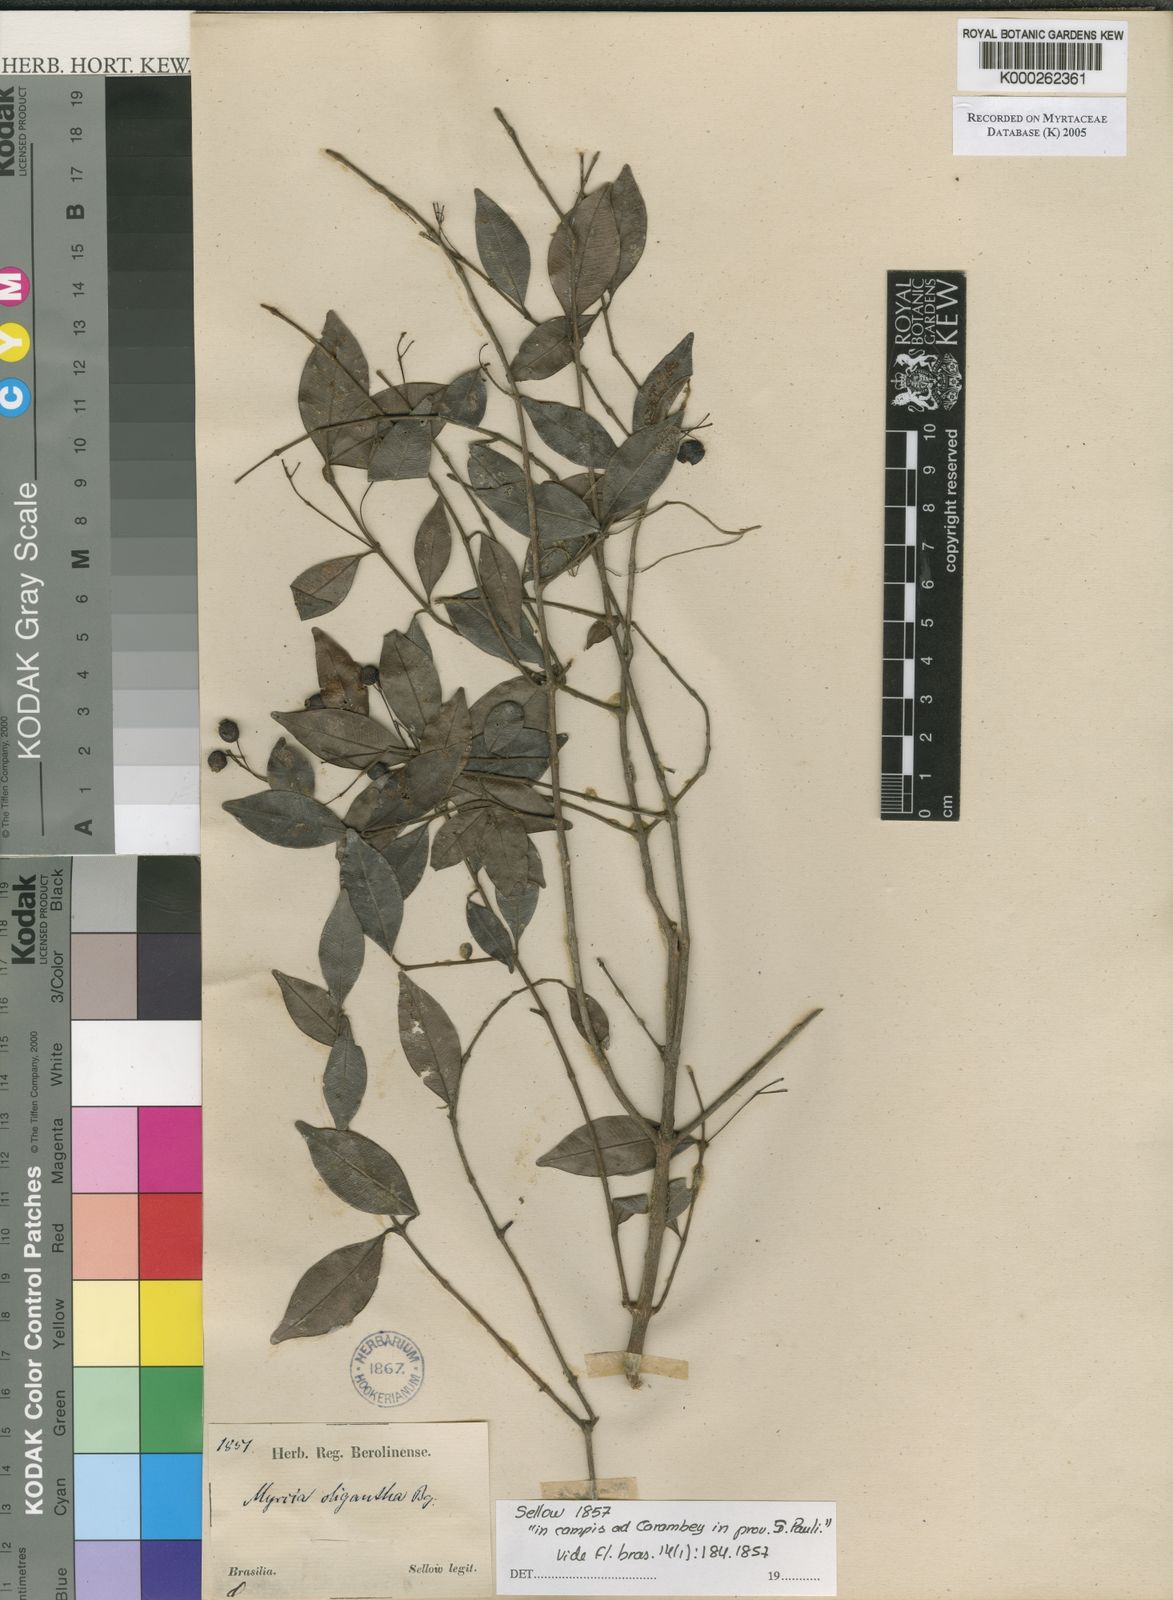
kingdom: Plantae
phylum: Tracheophyta
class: Magnoliopsida
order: Myrtales
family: Myrtaceae
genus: Myrcia
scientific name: Myrcia oligantha
